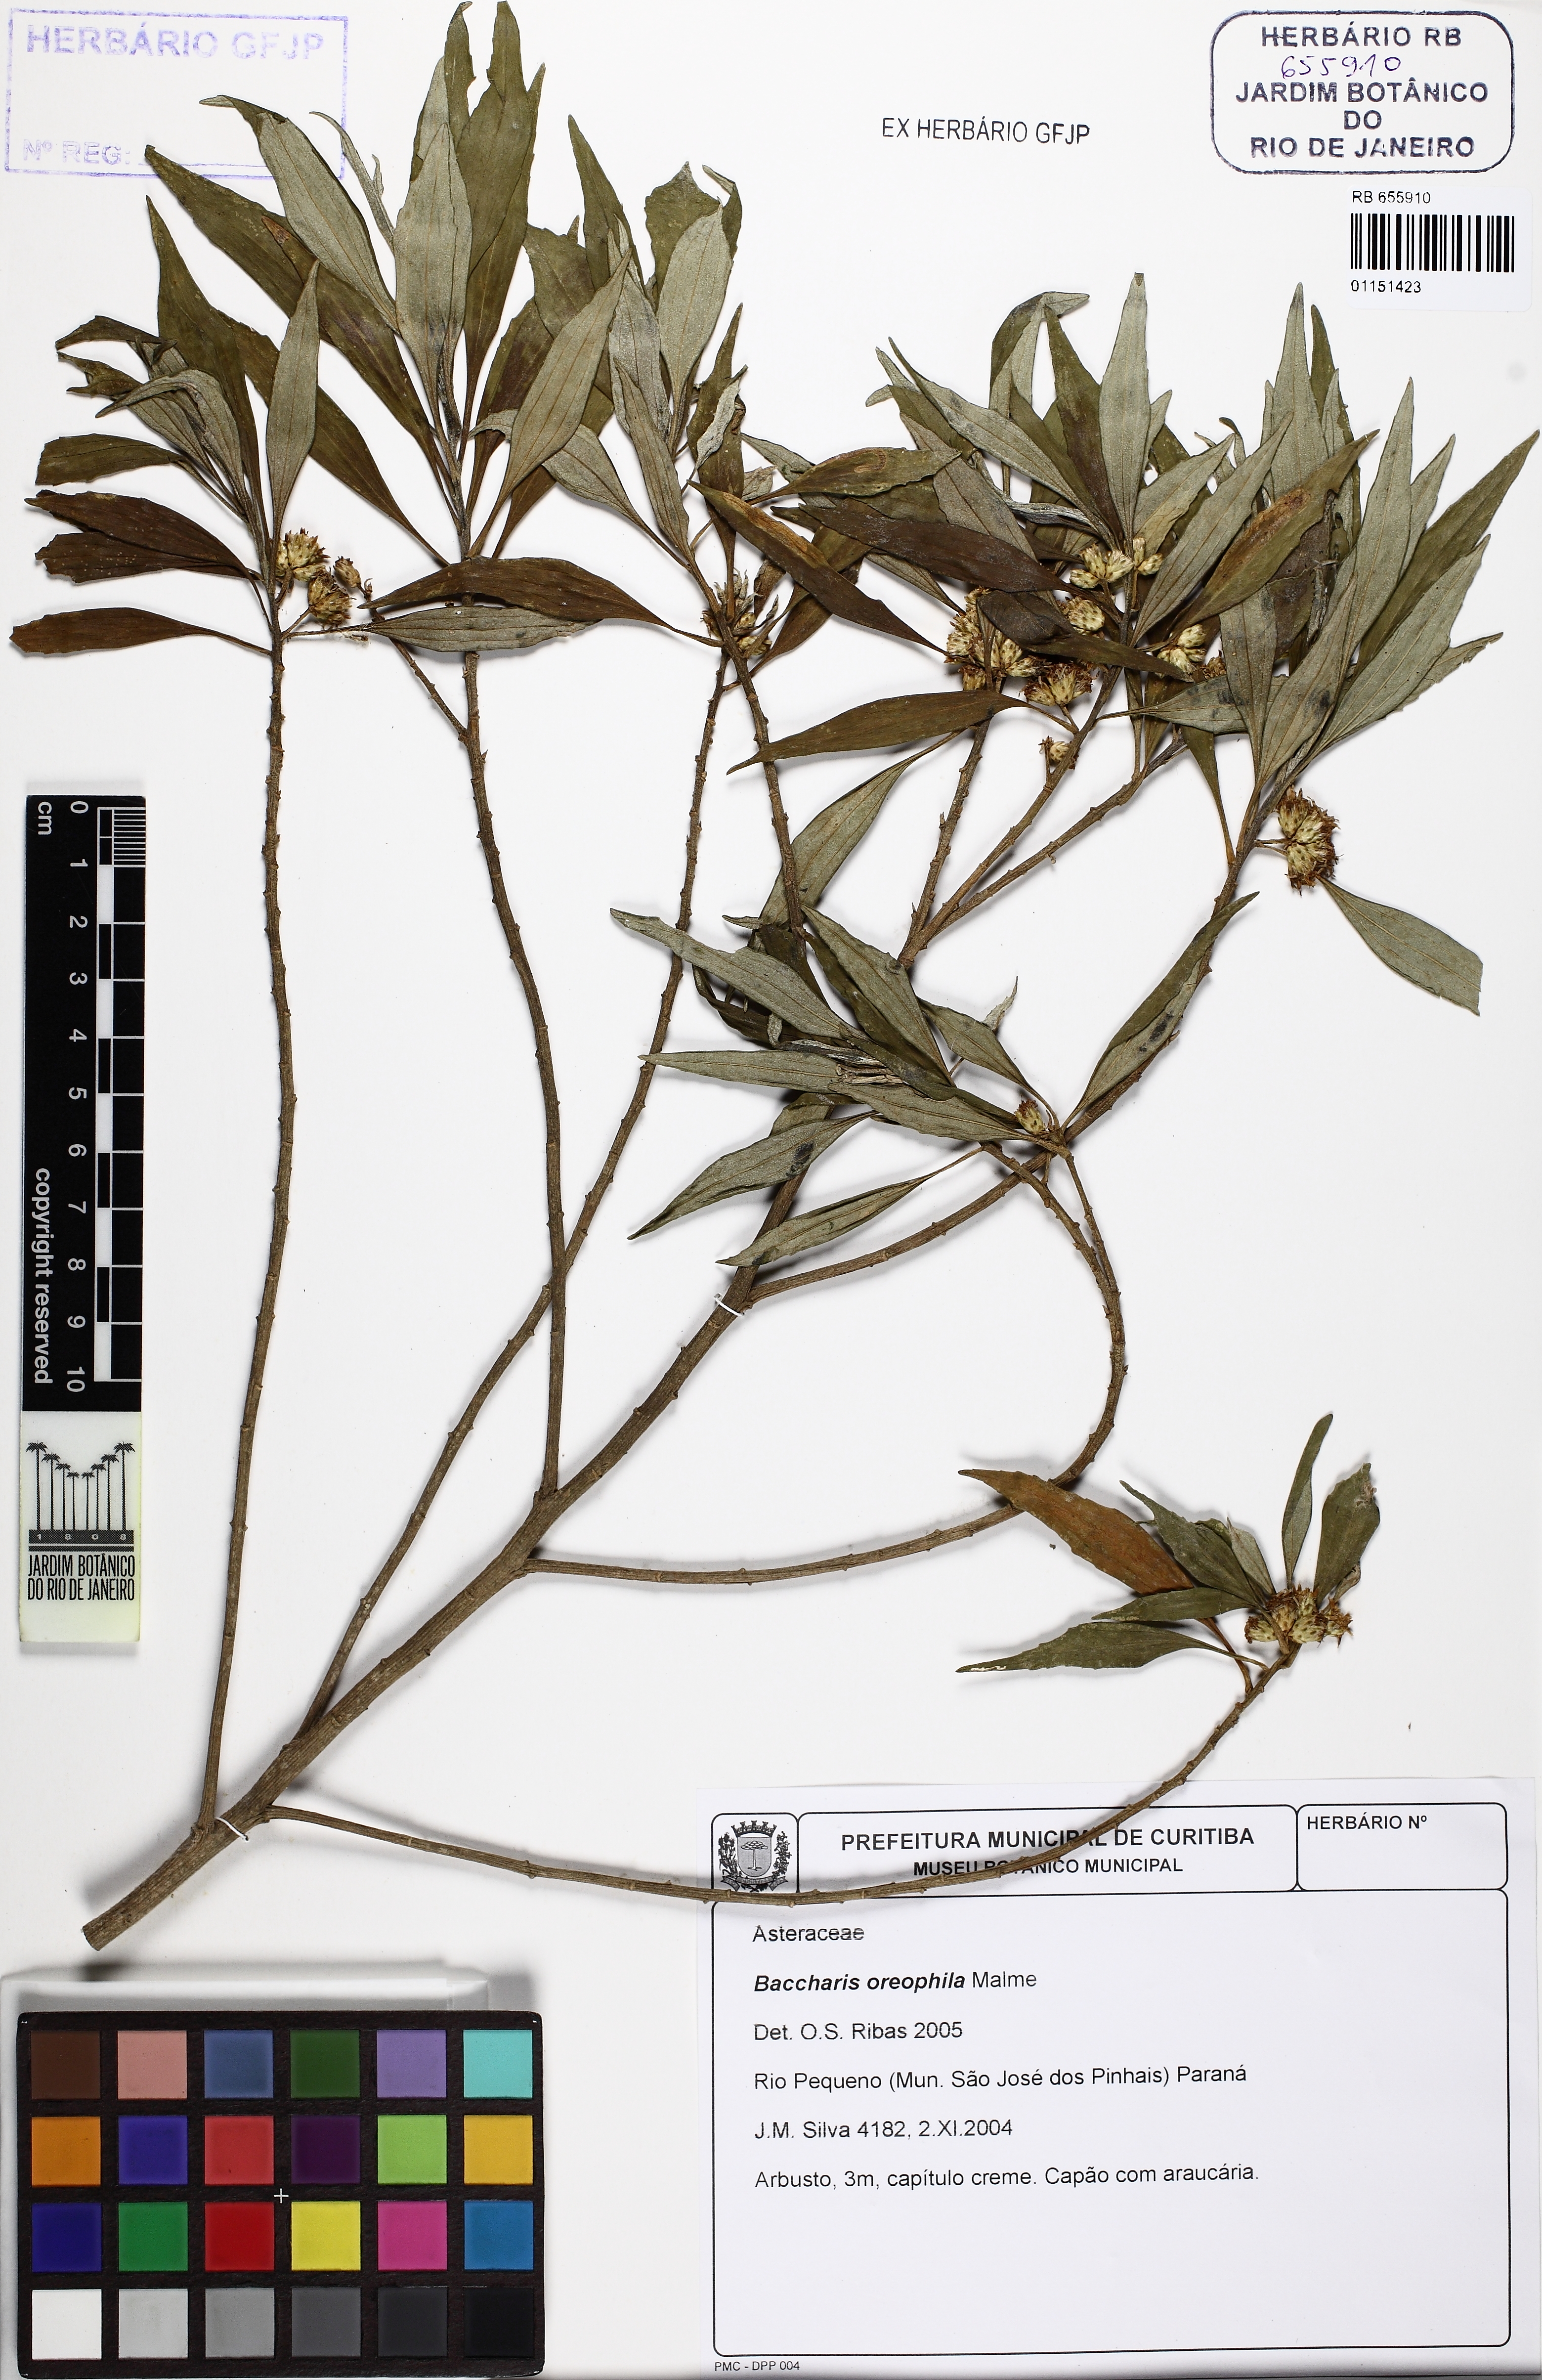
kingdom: Plantae
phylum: Tracheophyta
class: Magnoliopsida
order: Asterales
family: Asteraceae
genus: Baccharis
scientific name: Baccharis oreophila
